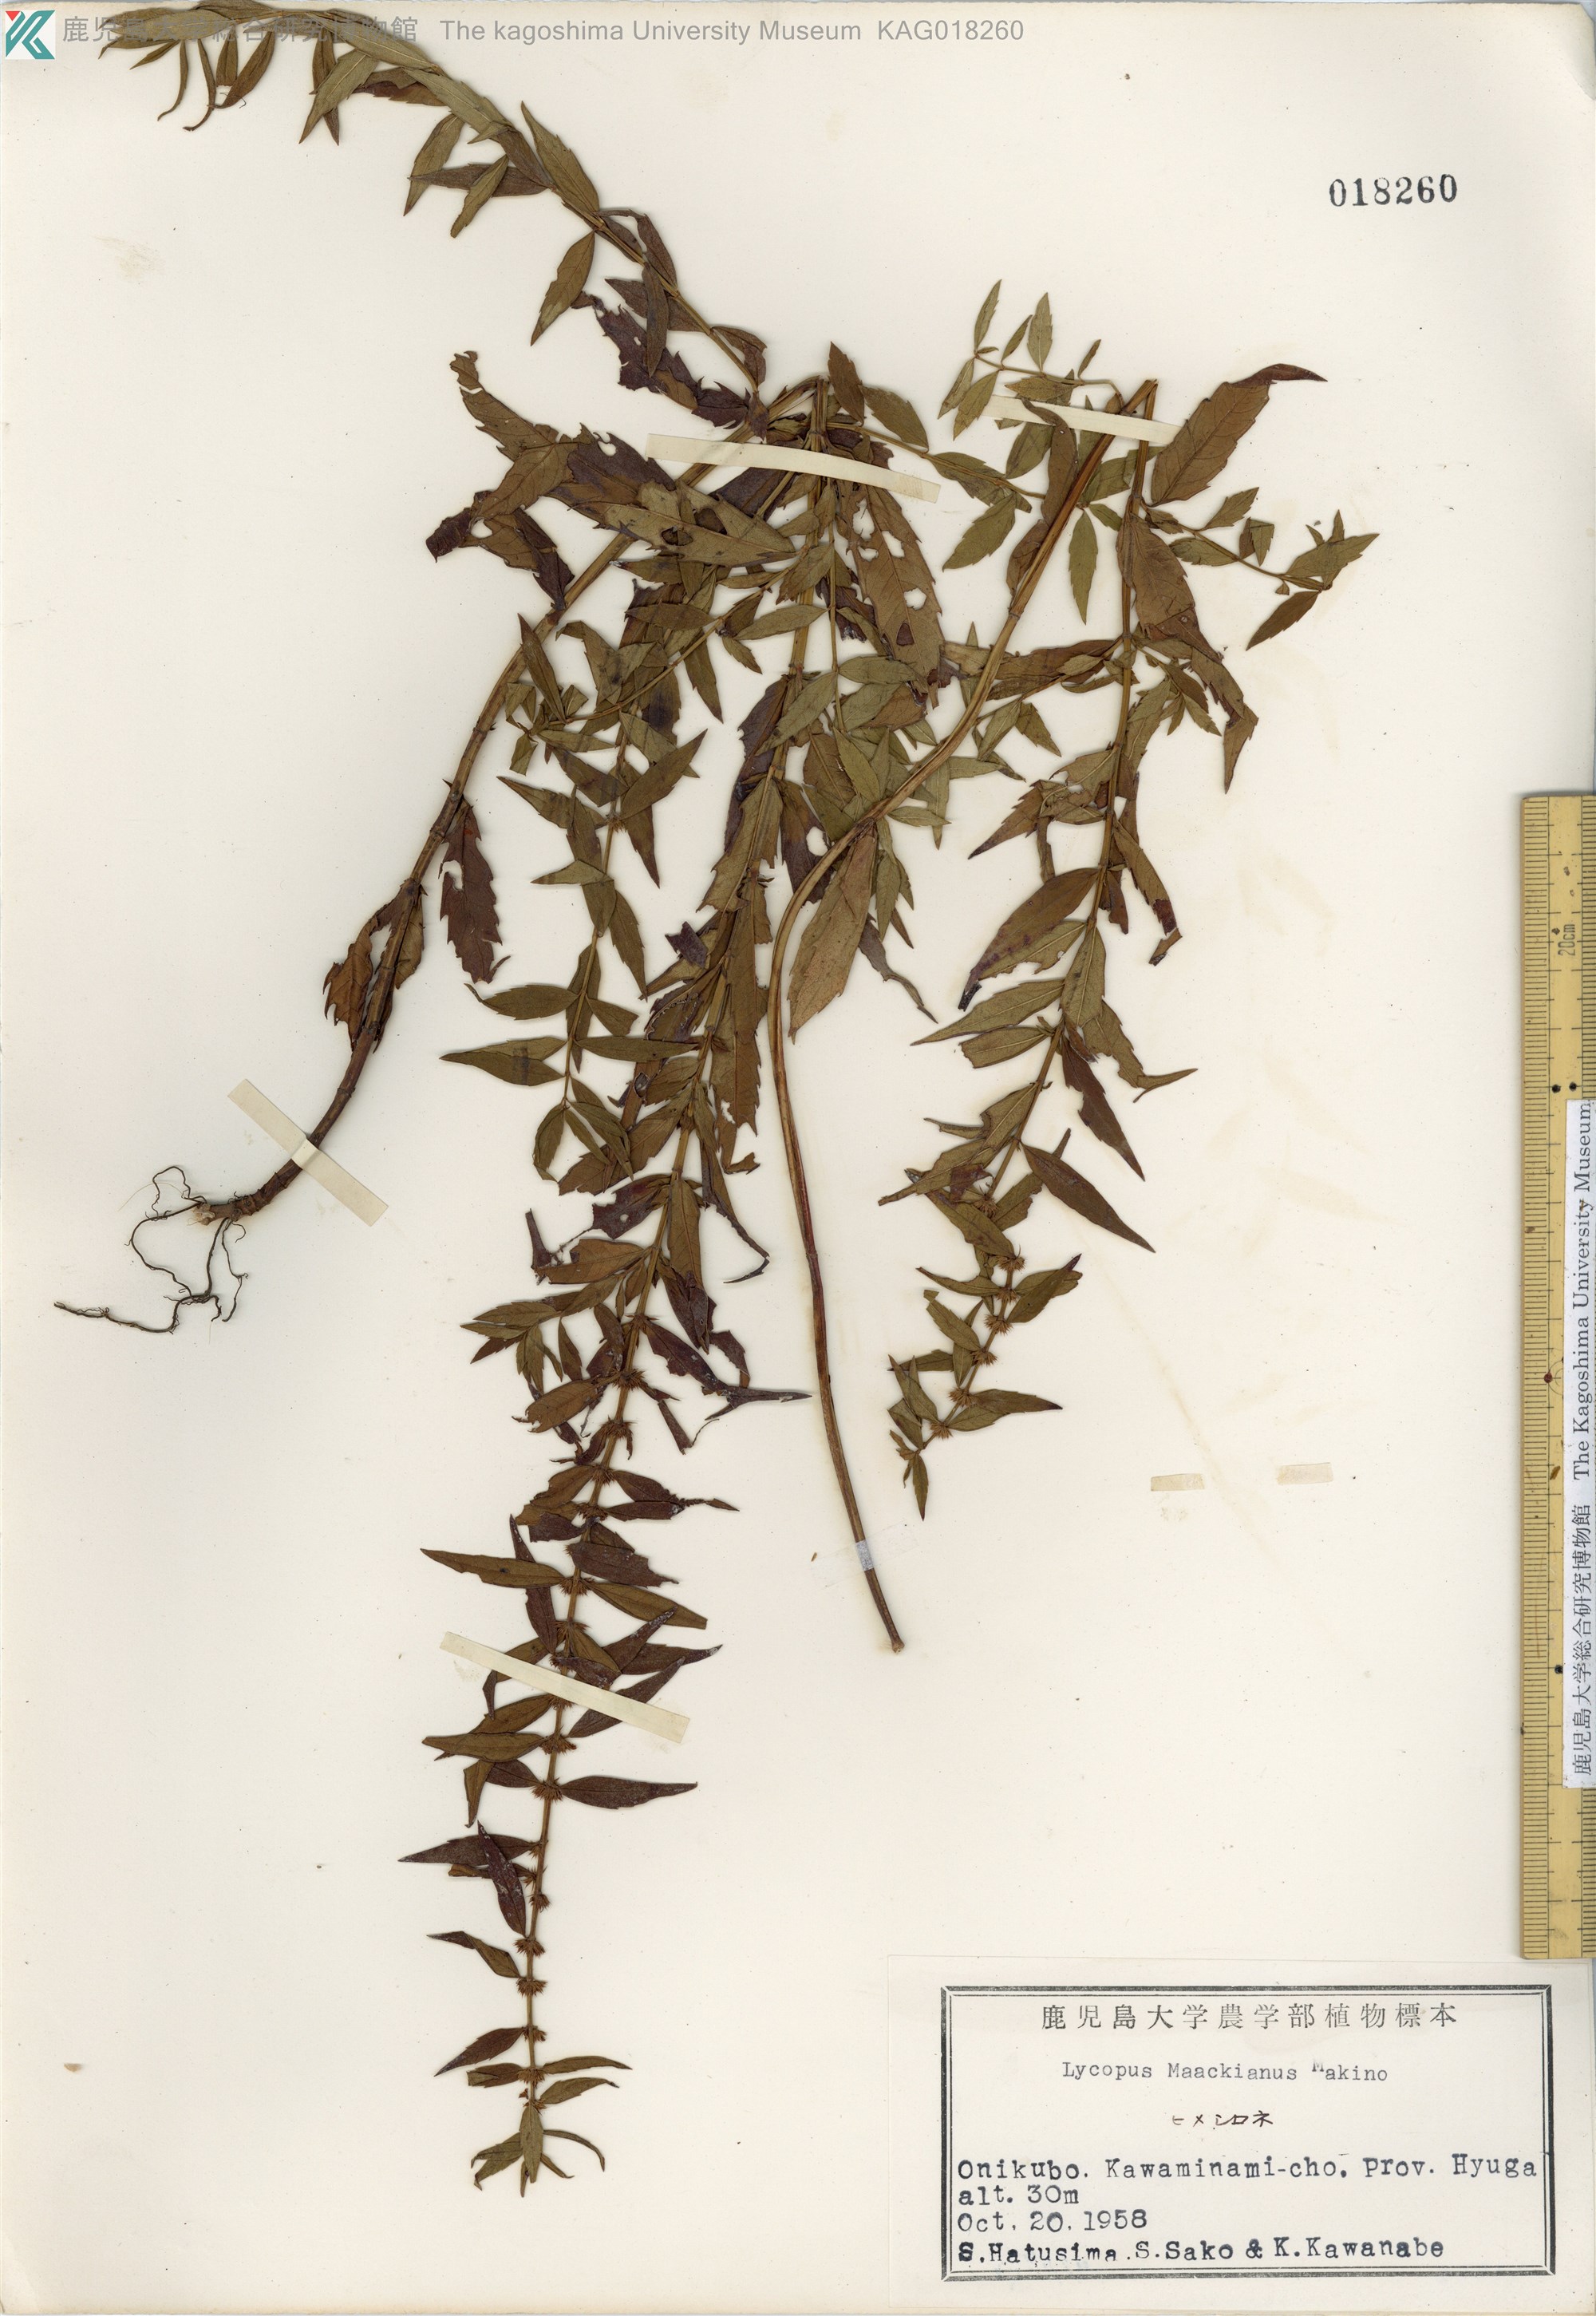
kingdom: Plantae
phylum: Tracheophyta
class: Magnoliopsida
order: Lamiales
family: Lamiaceae
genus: Lycopus
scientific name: Lycopus lucidus
